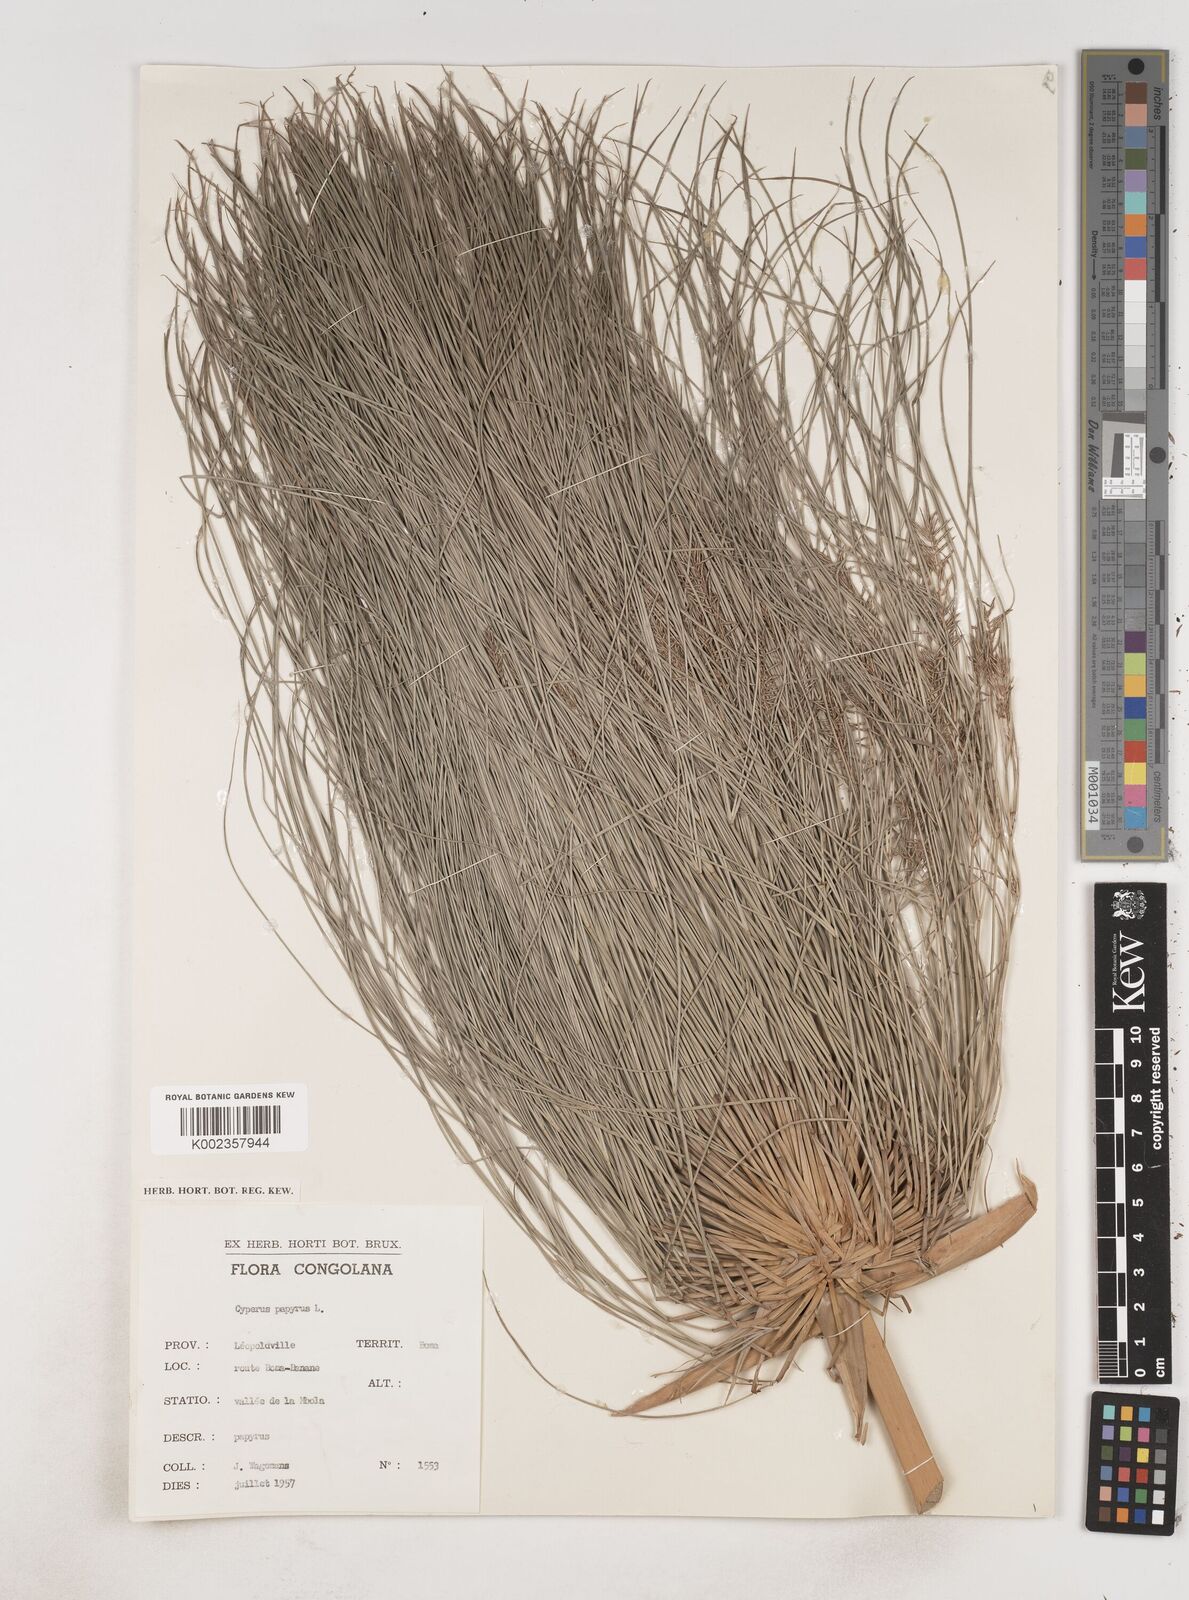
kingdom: Plantae
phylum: Tracheophyta
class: Liliopsida
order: Poales
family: Cyperaceae
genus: Cyperus
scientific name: Cyperus papyrus
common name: Papyrus
